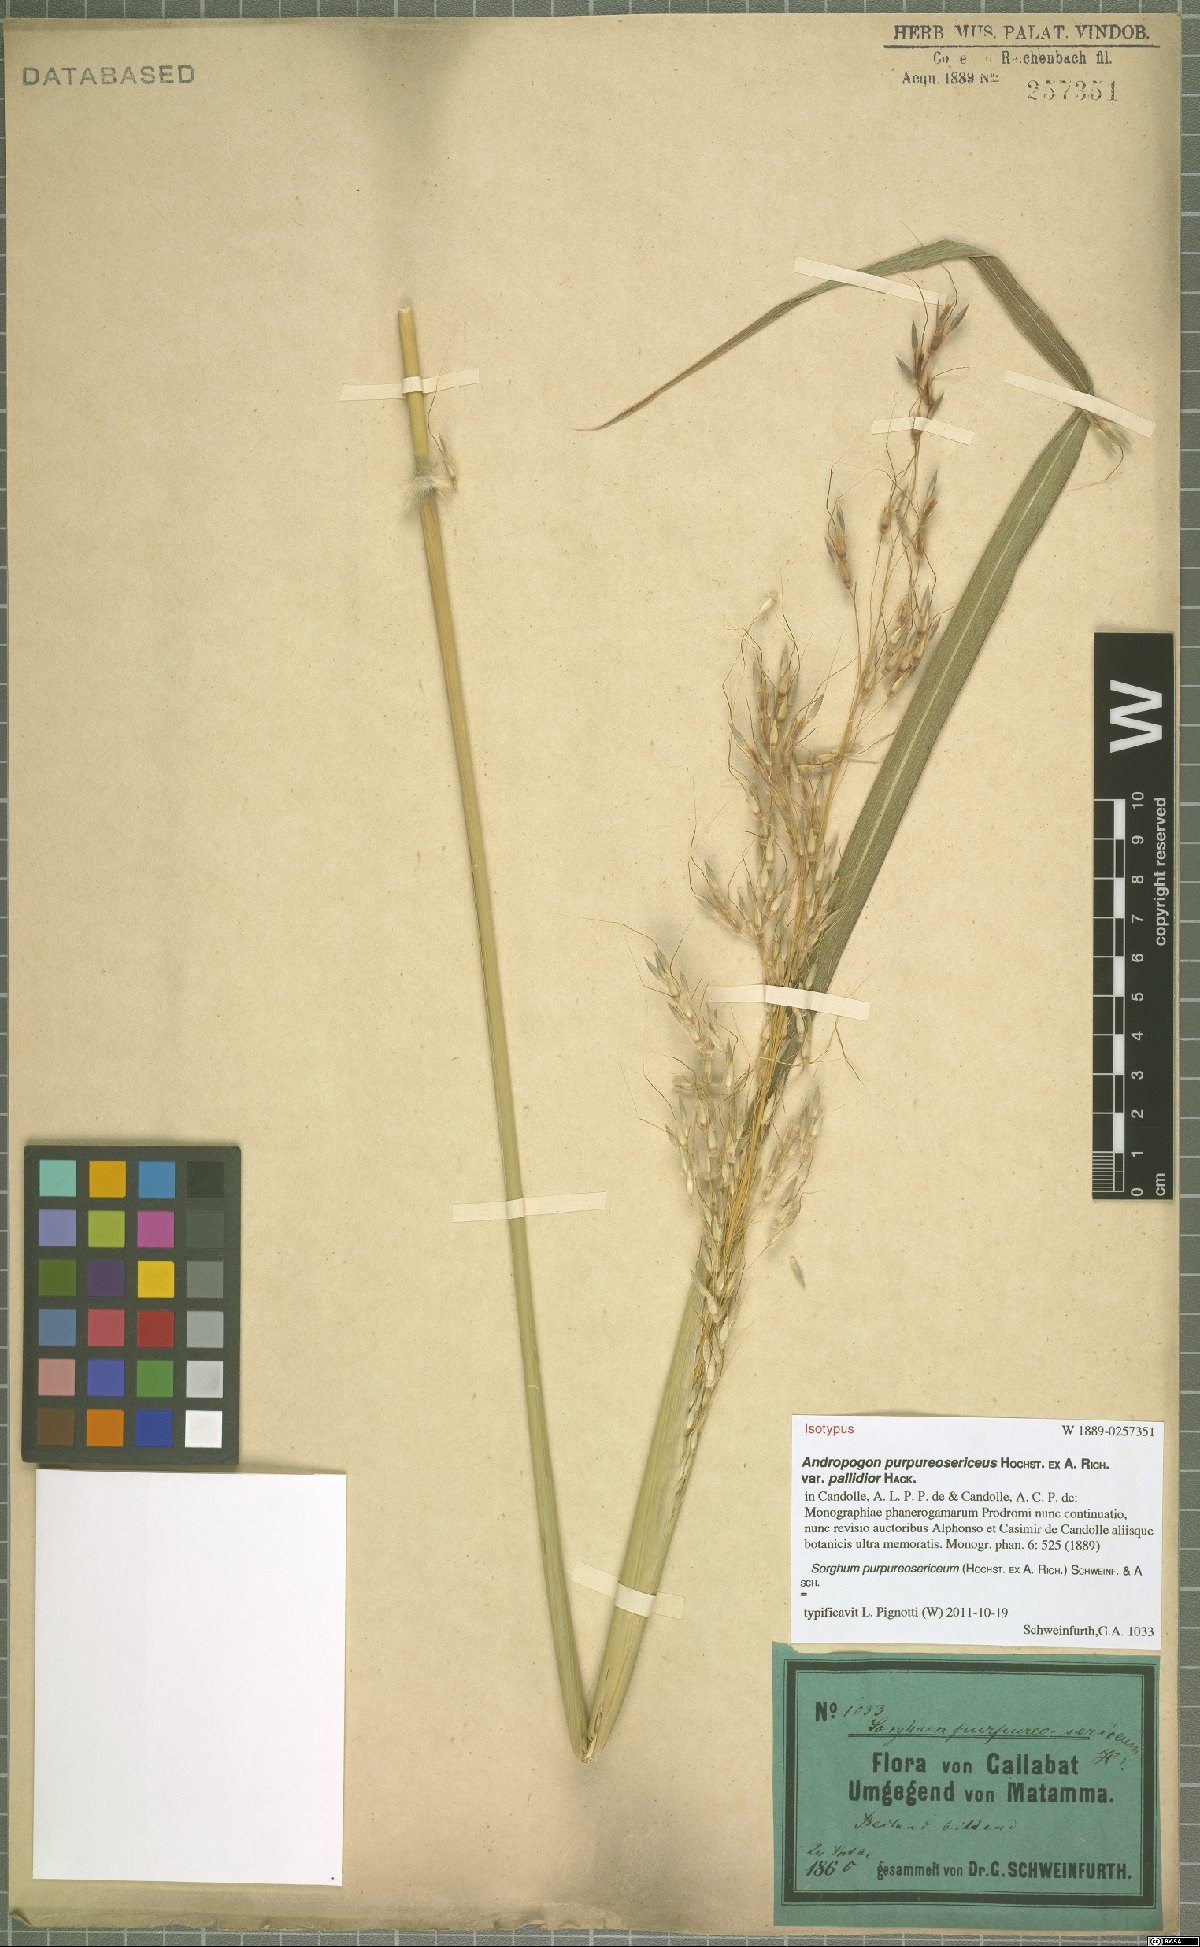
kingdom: Plantae
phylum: Tracheophyta
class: Liliopsida
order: Poales
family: Poaceae
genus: Sarga
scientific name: Sarga purpureosericea
